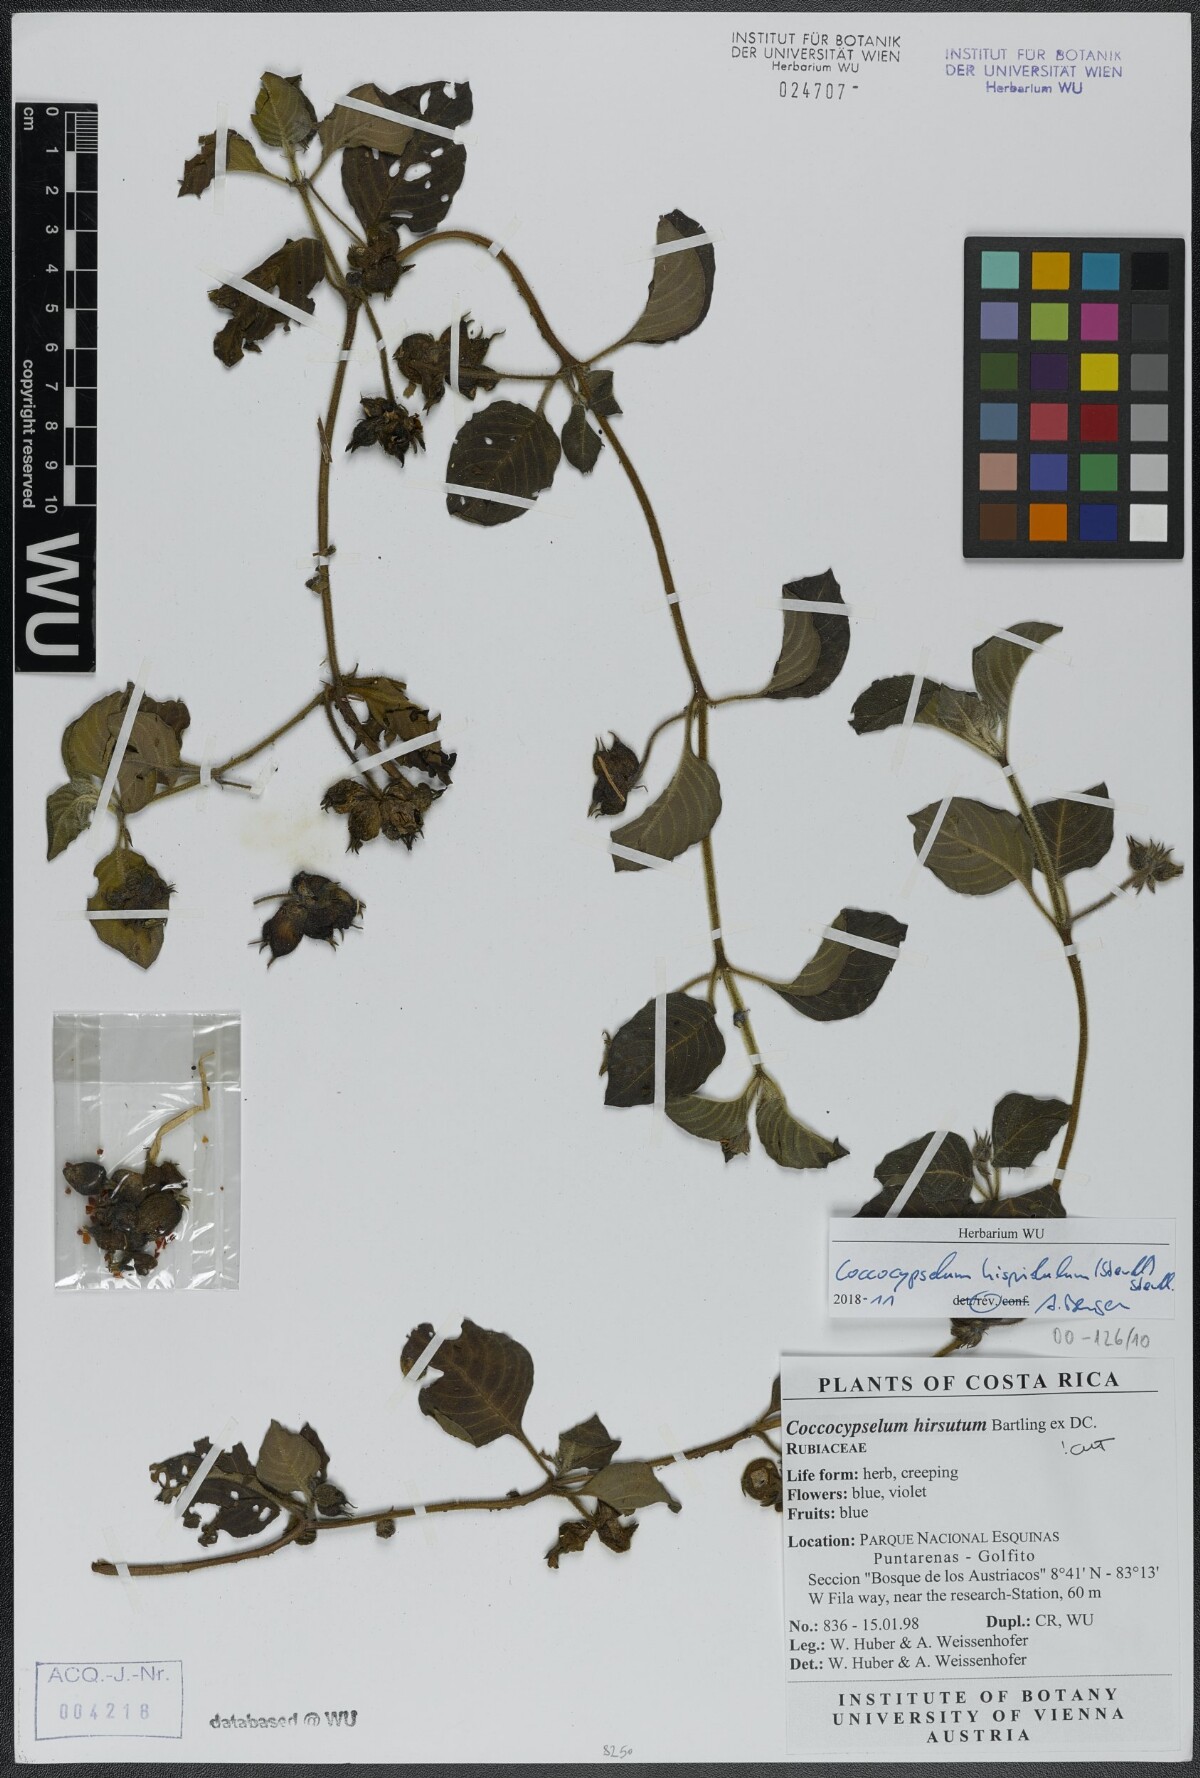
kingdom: Plantae
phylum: Tracheophyta
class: Magnoliopsida
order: Gentianales
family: Rubiaceae
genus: Coccocypselum
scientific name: Coccocypselum hispidulum
